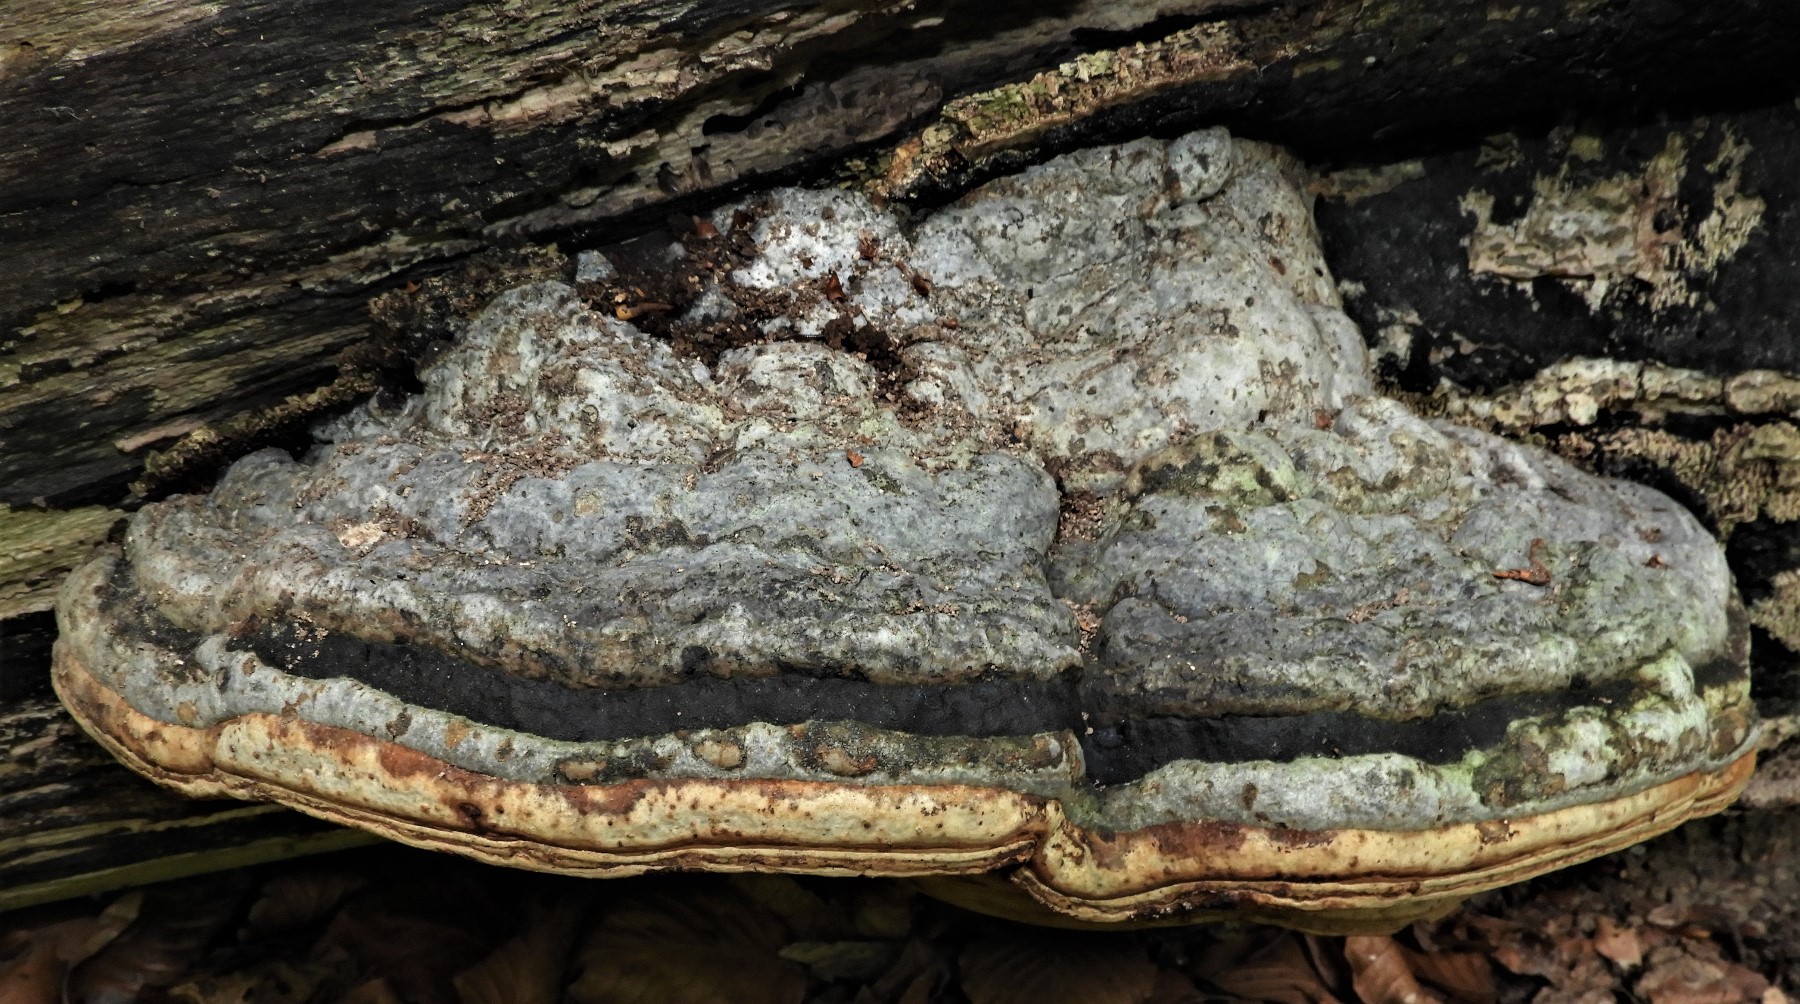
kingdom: Fungi
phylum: Basidiomycota
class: Agaricomycetes
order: Polyporales
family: Polyporaceae
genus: Fomes
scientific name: Fomes fomentarius
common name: tøndersvamp
